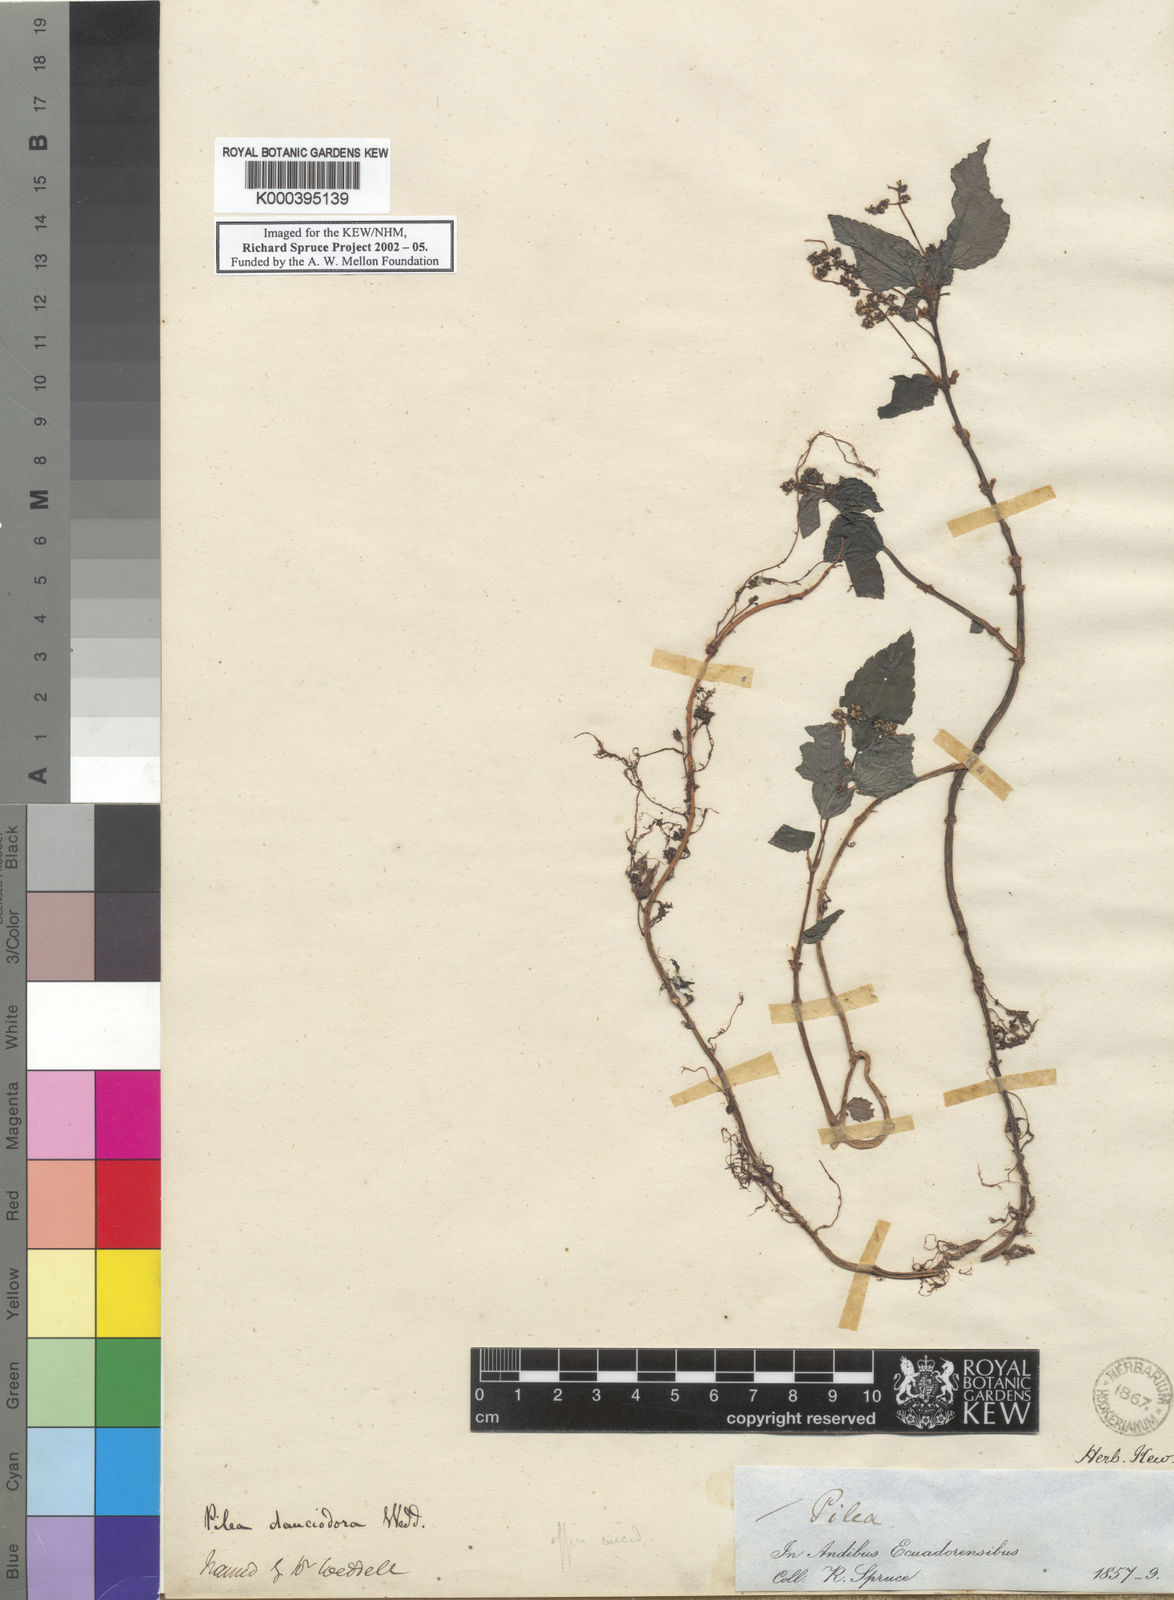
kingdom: Plantae
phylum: Tracheophyta
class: Magnoliopsida
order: Rosales
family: Urticaceae
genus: Pilea
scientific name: Pilea dauciodora
